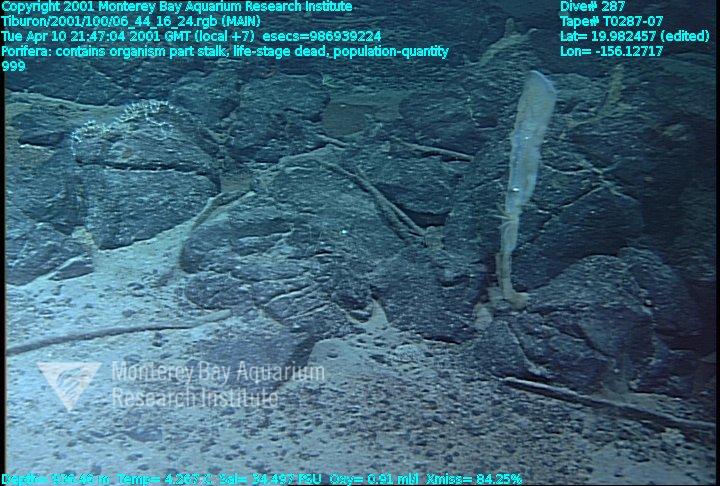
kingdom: Animalia
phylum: Porifera
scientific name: Porifera
